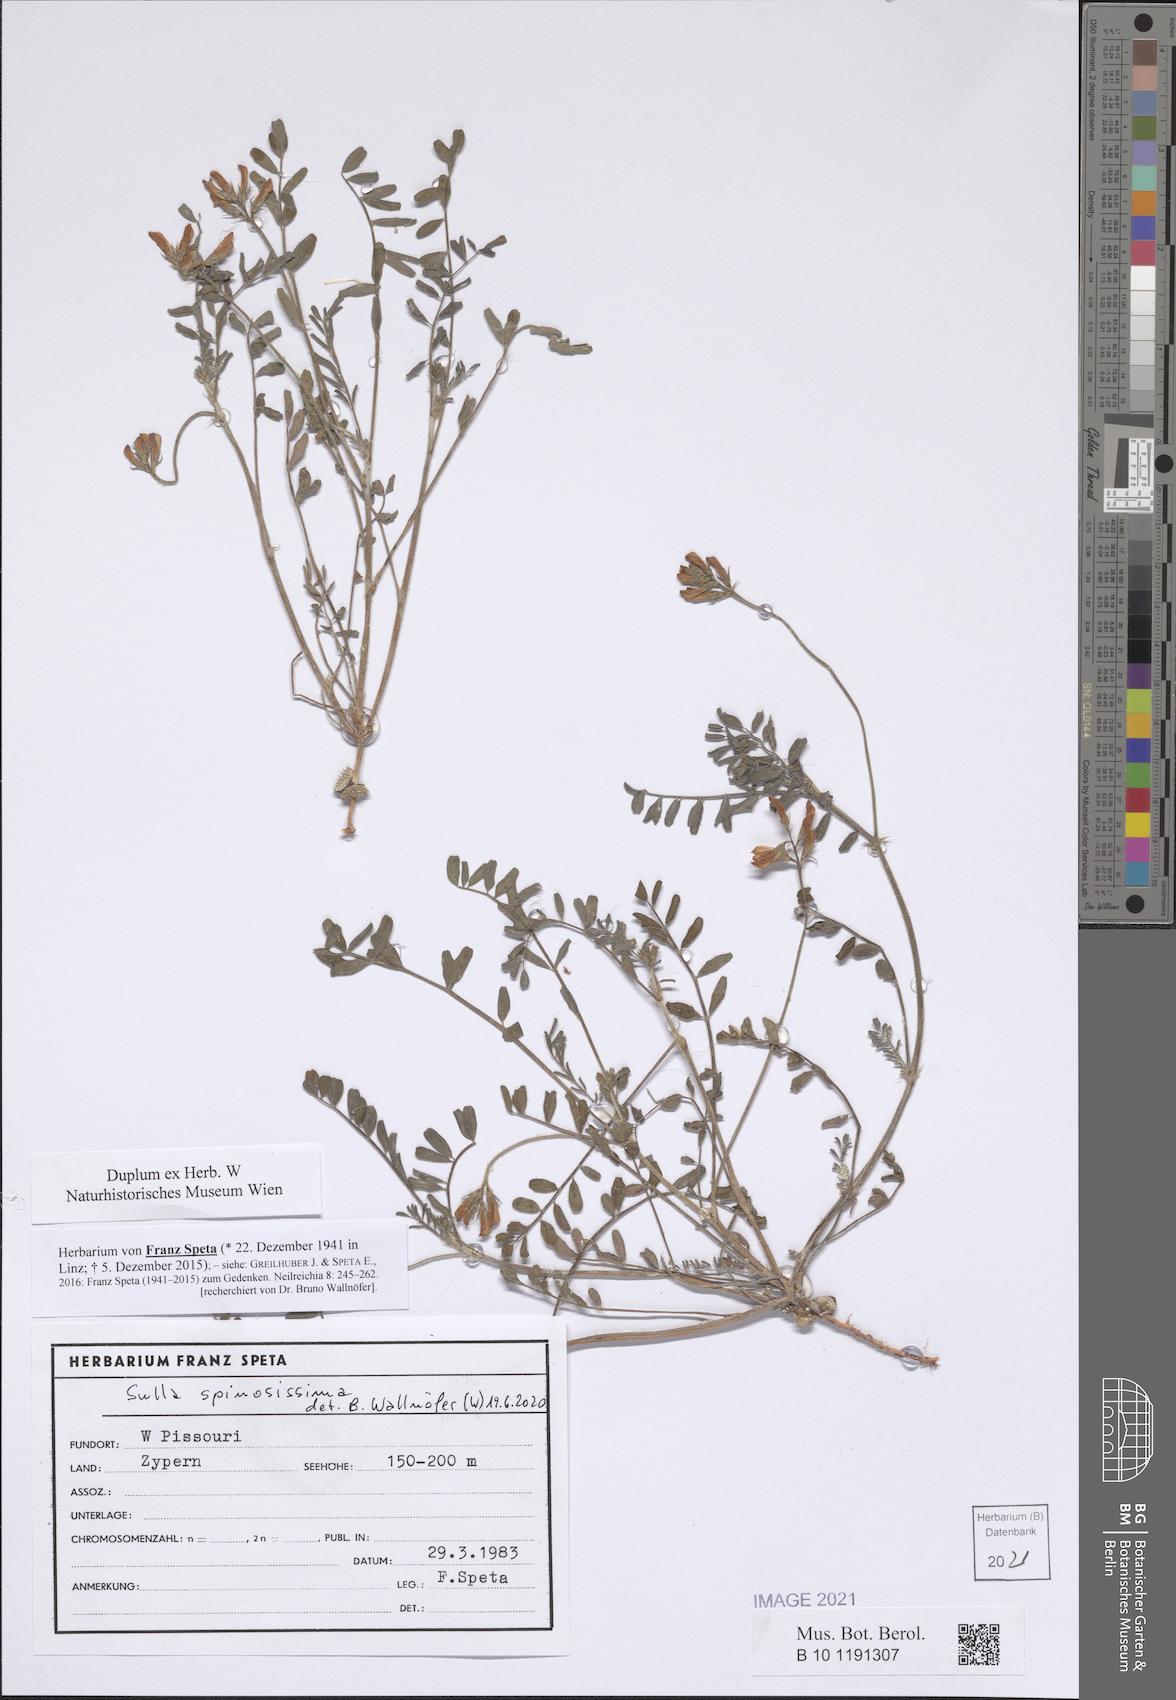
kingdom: Plantae
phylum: Tracheophyta
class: Magnoliopsida
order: Fabales
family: Fabaceae
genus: Sulla
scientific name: Sulla spinosissima
